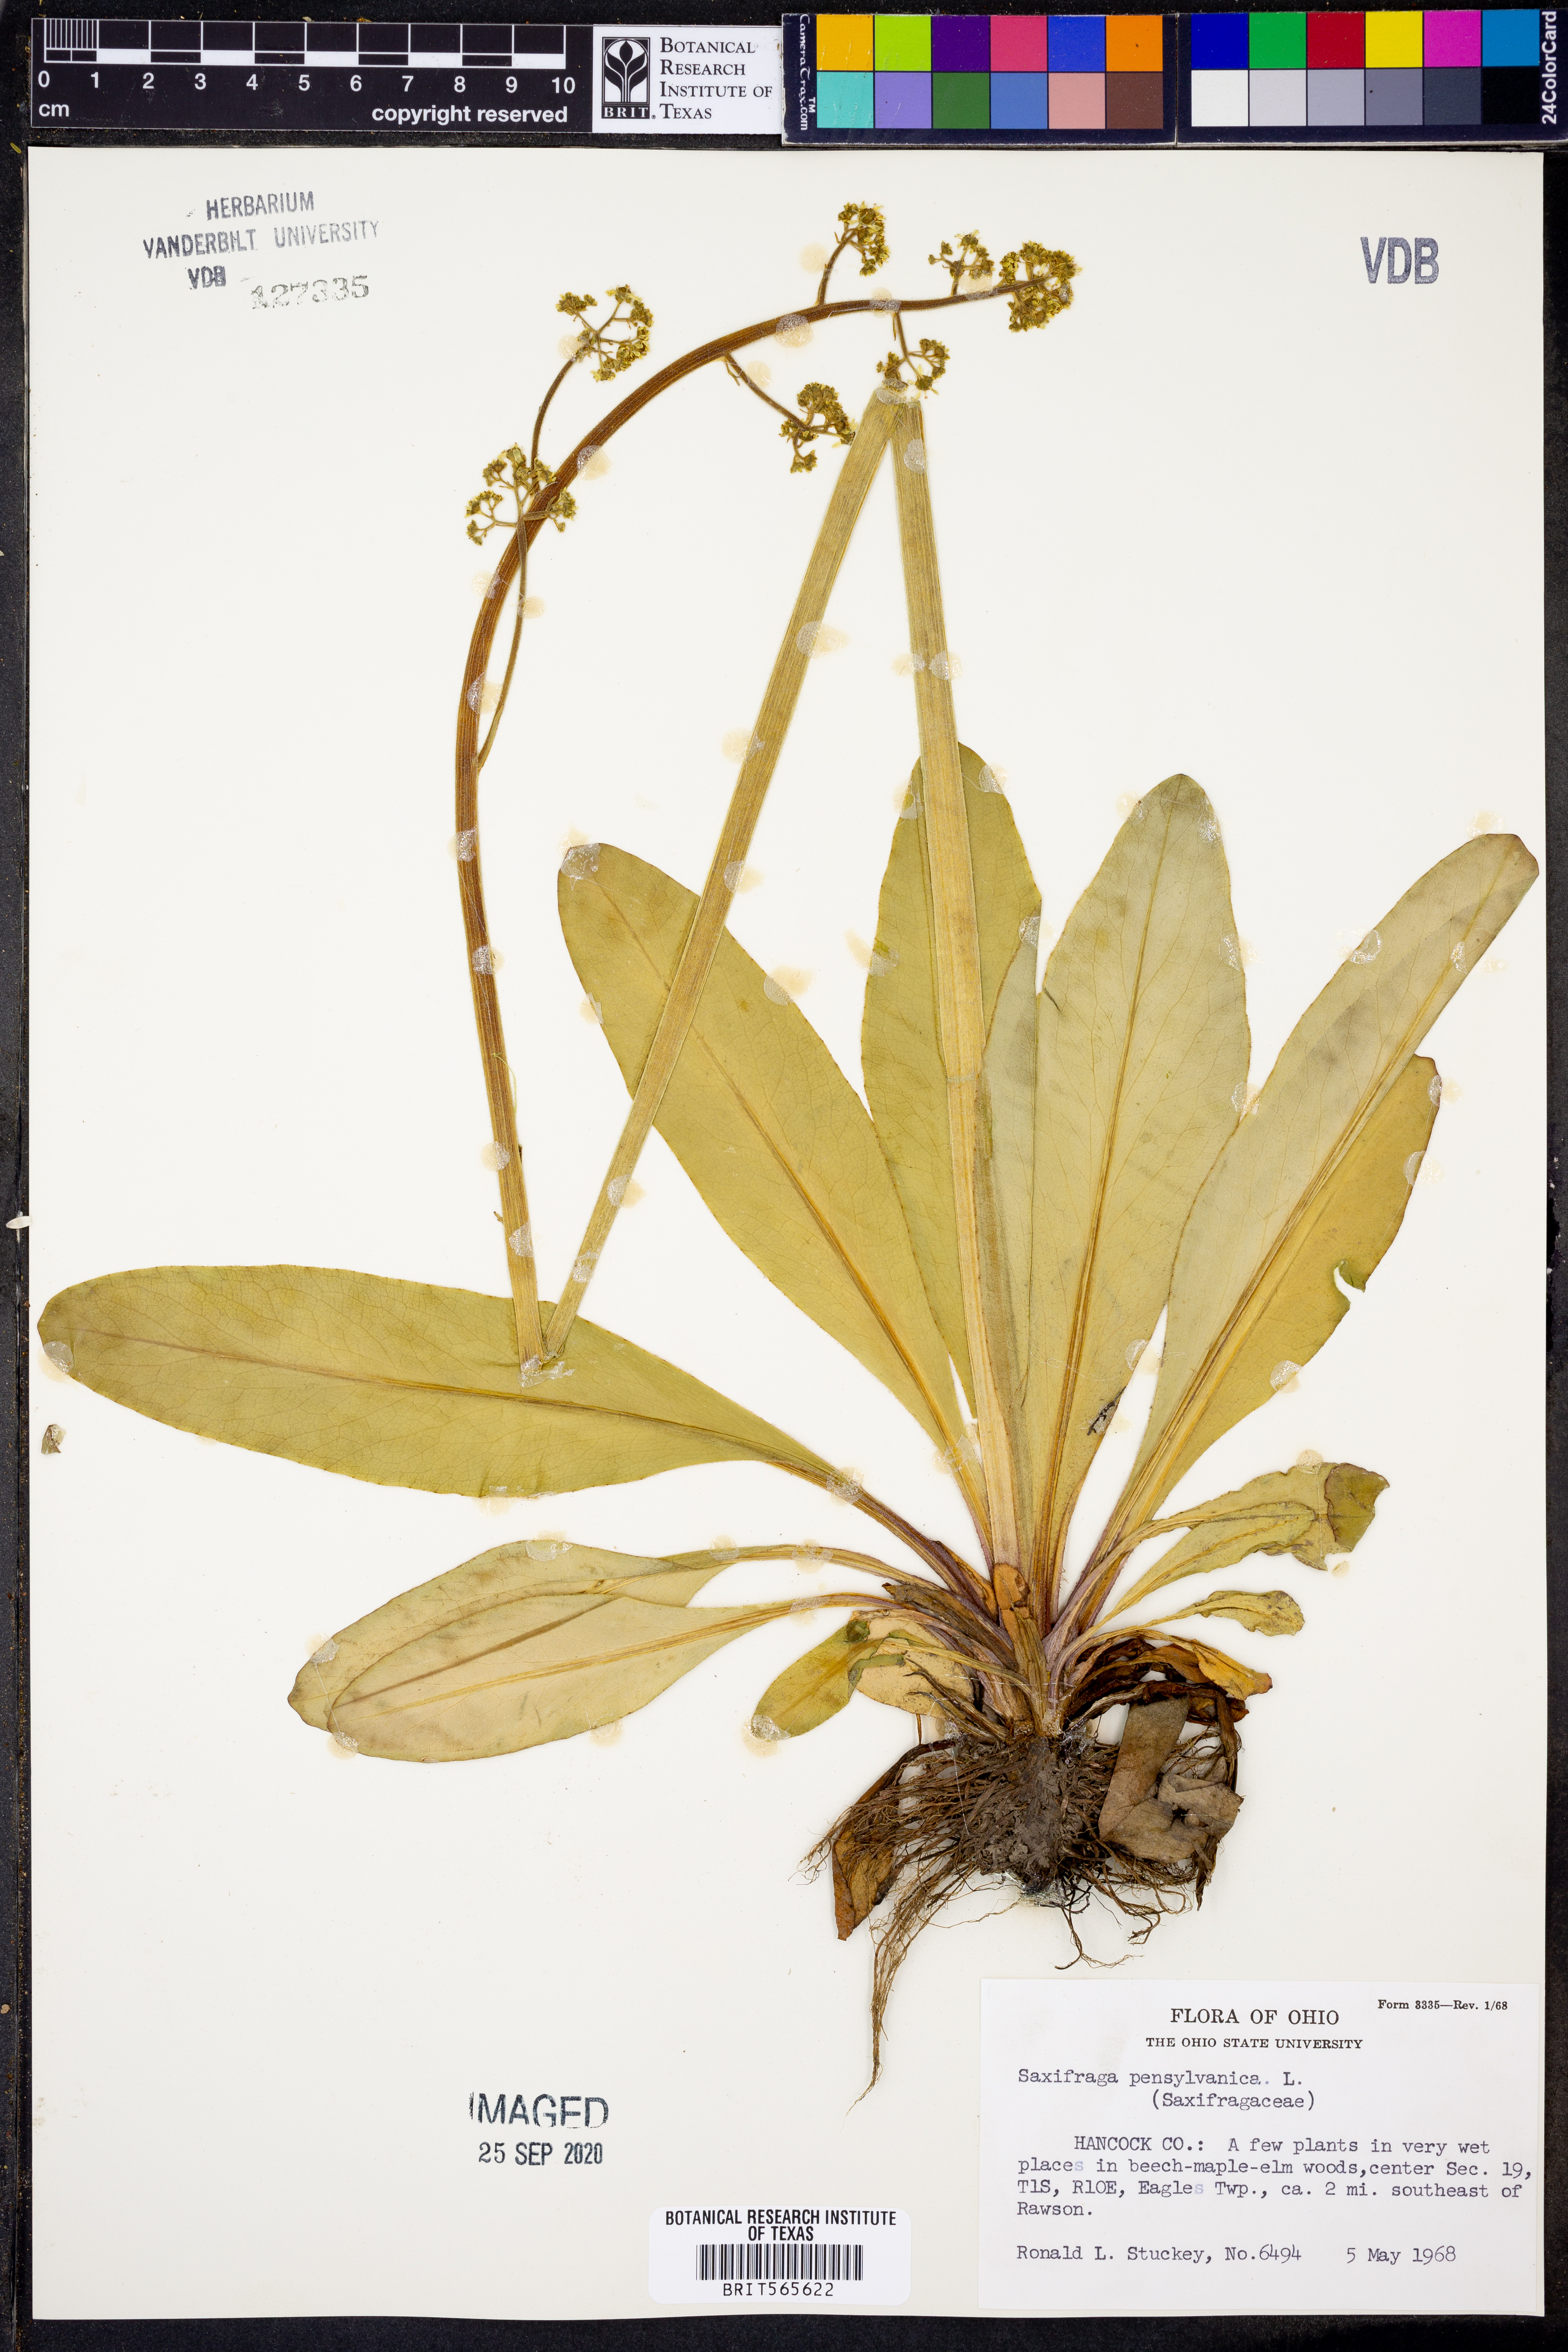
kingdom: Plantae
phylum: Tracheophyta
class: Magnoliopsida
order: Saxifragales
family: Saxifragaceae
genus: Micranthes
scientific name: Micranthes pensylvanica
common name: Marsh saxifrage
